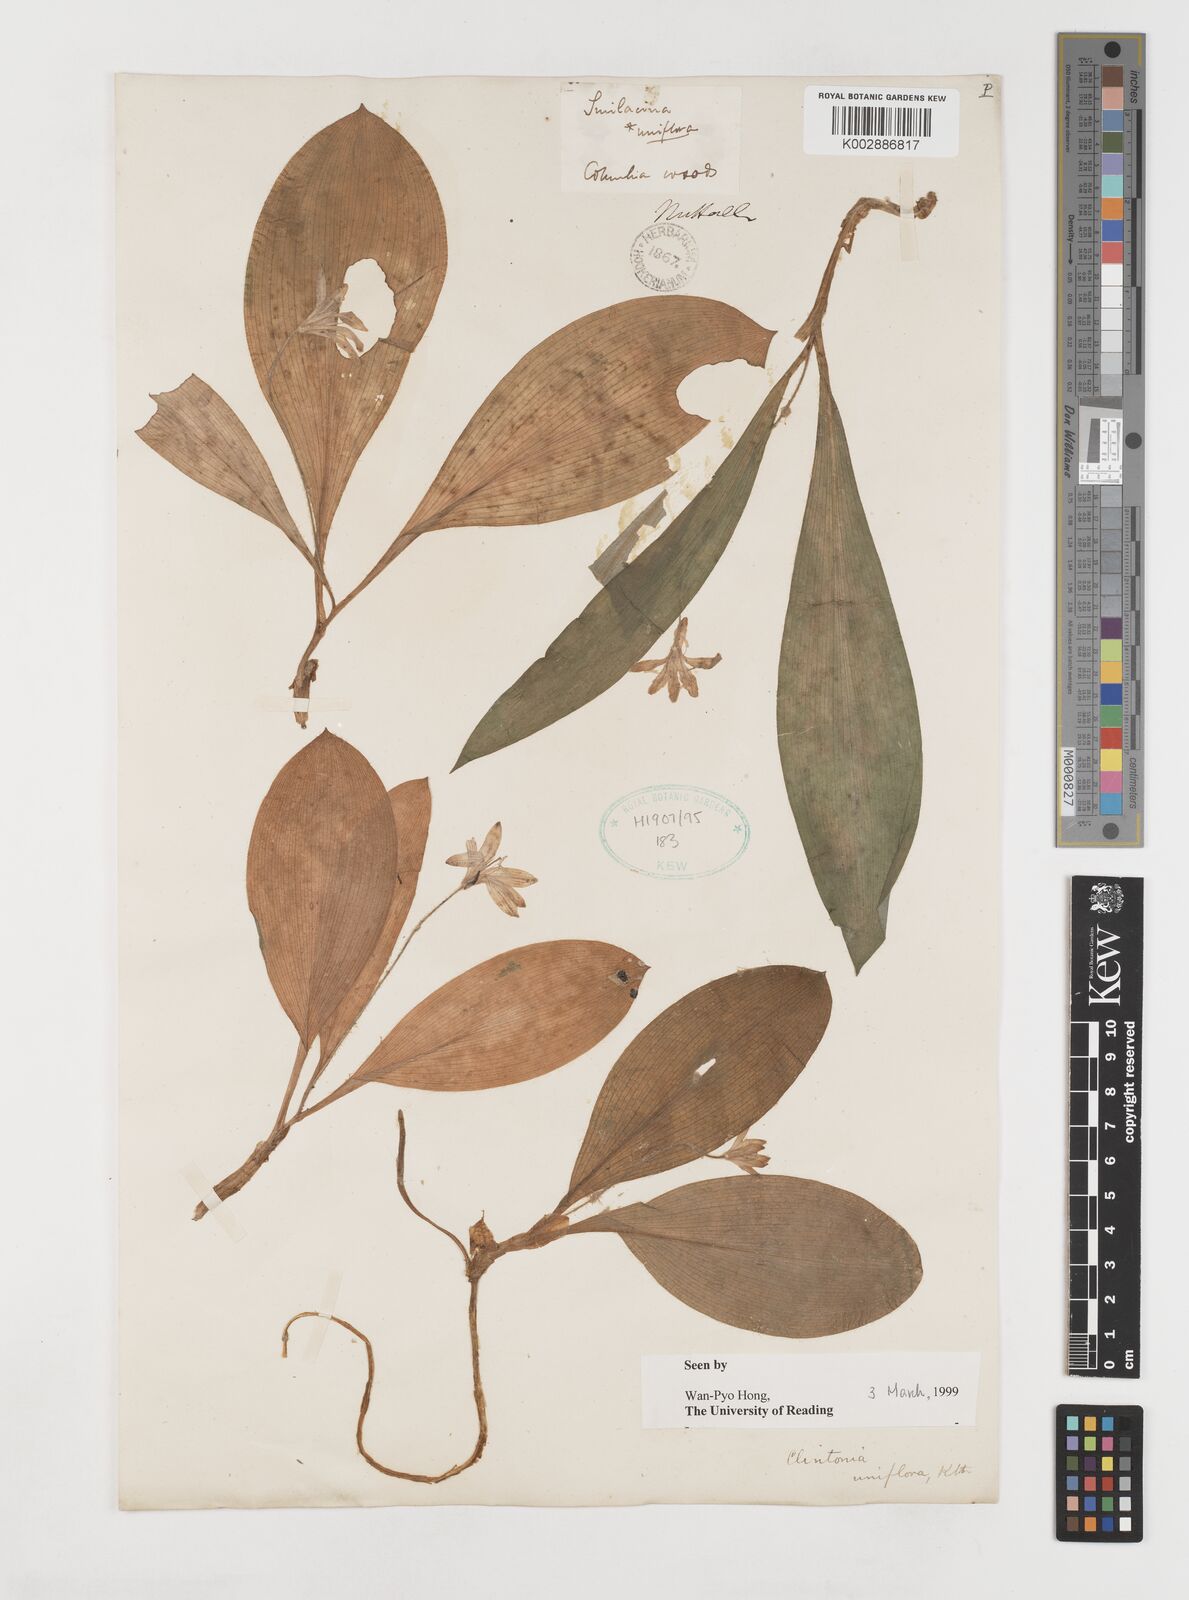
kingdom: Plantae
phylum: Tracheophyta
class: Liliopsida
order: Liliales
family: Liliaceae
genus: Clintonia
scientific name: Clintonia uniflora
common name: Queen's cup
